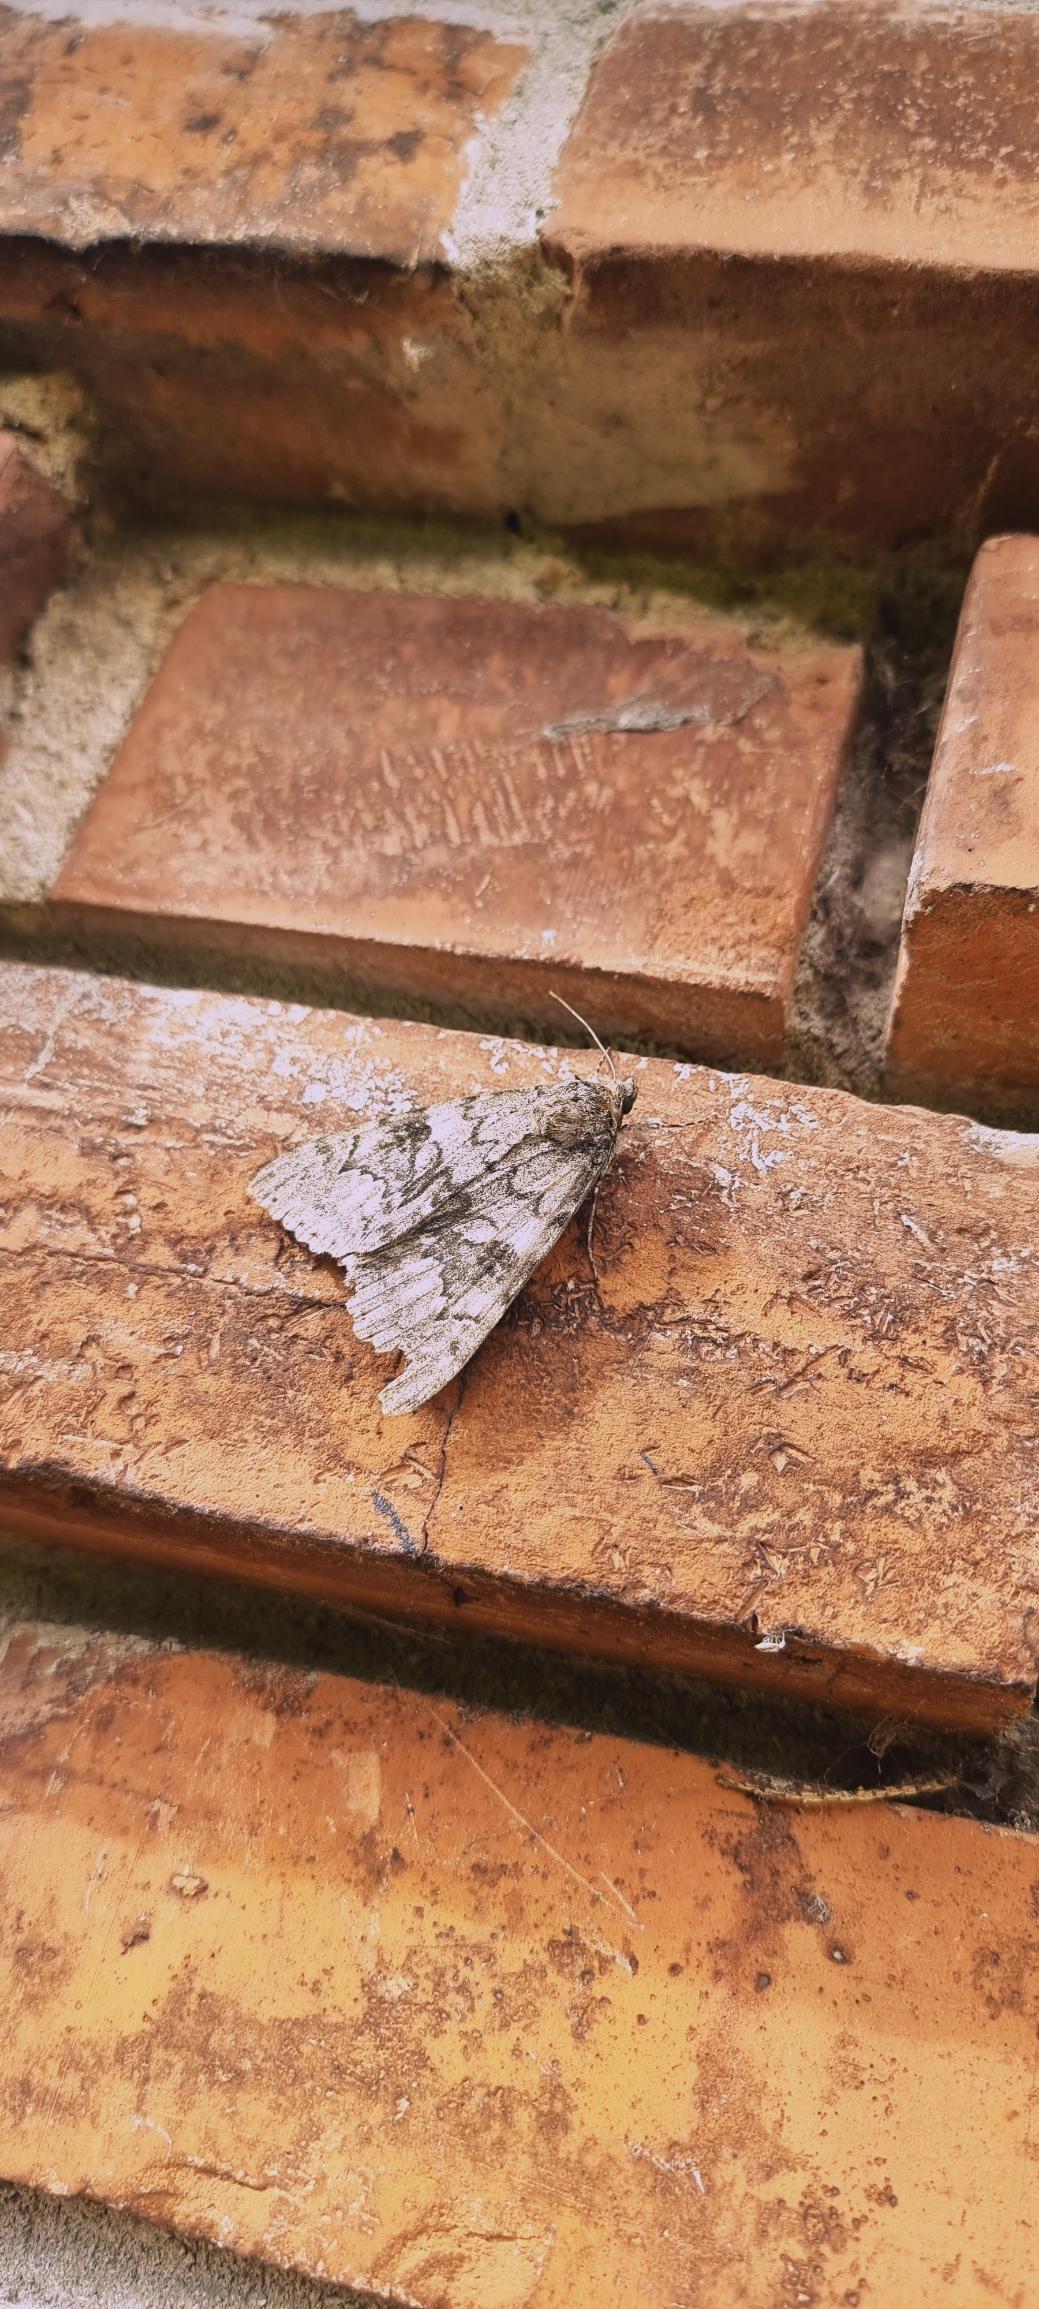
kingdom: Animalia
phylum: Arthropoda
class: Insecta
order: Lepidoptera
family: Erebidae
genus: Catocala
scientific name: Catocala nupta
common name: Rødt ordensbånd
